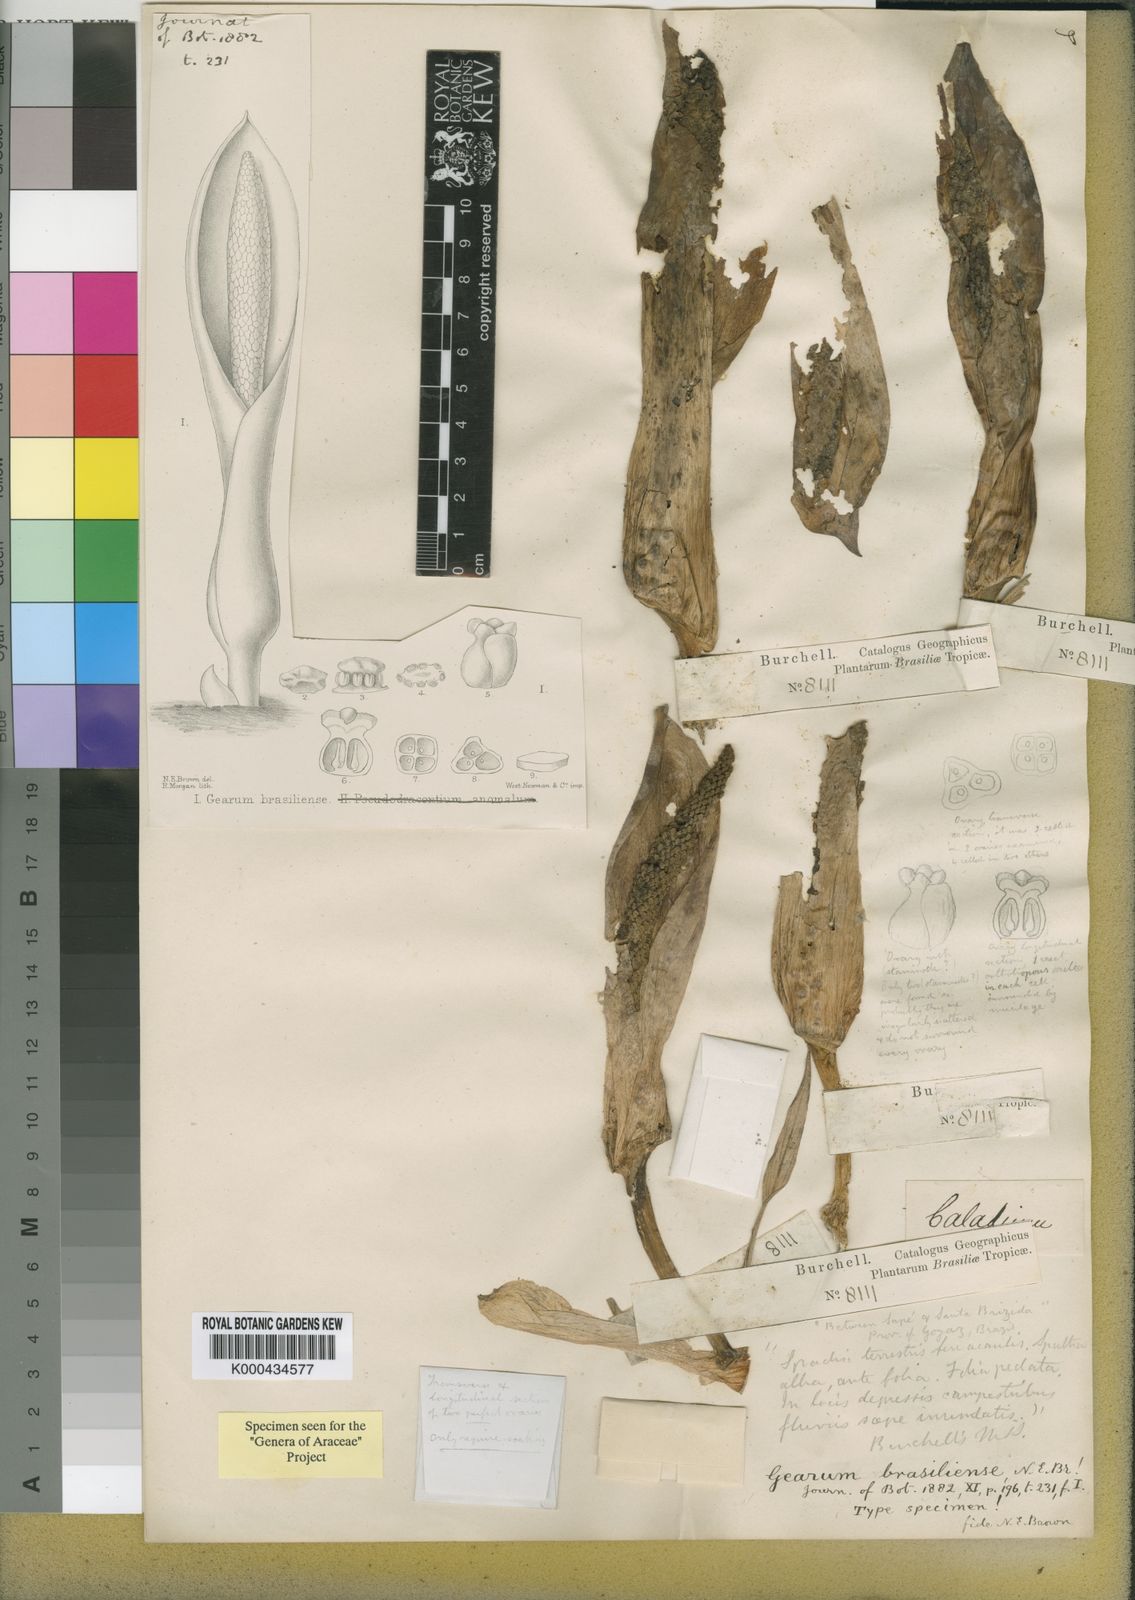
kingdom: Plantae
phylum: Tracheophyta
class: Liliopsida
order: Alismatales
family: Araceae
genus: Gearum
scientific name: Gearum brasiliense
